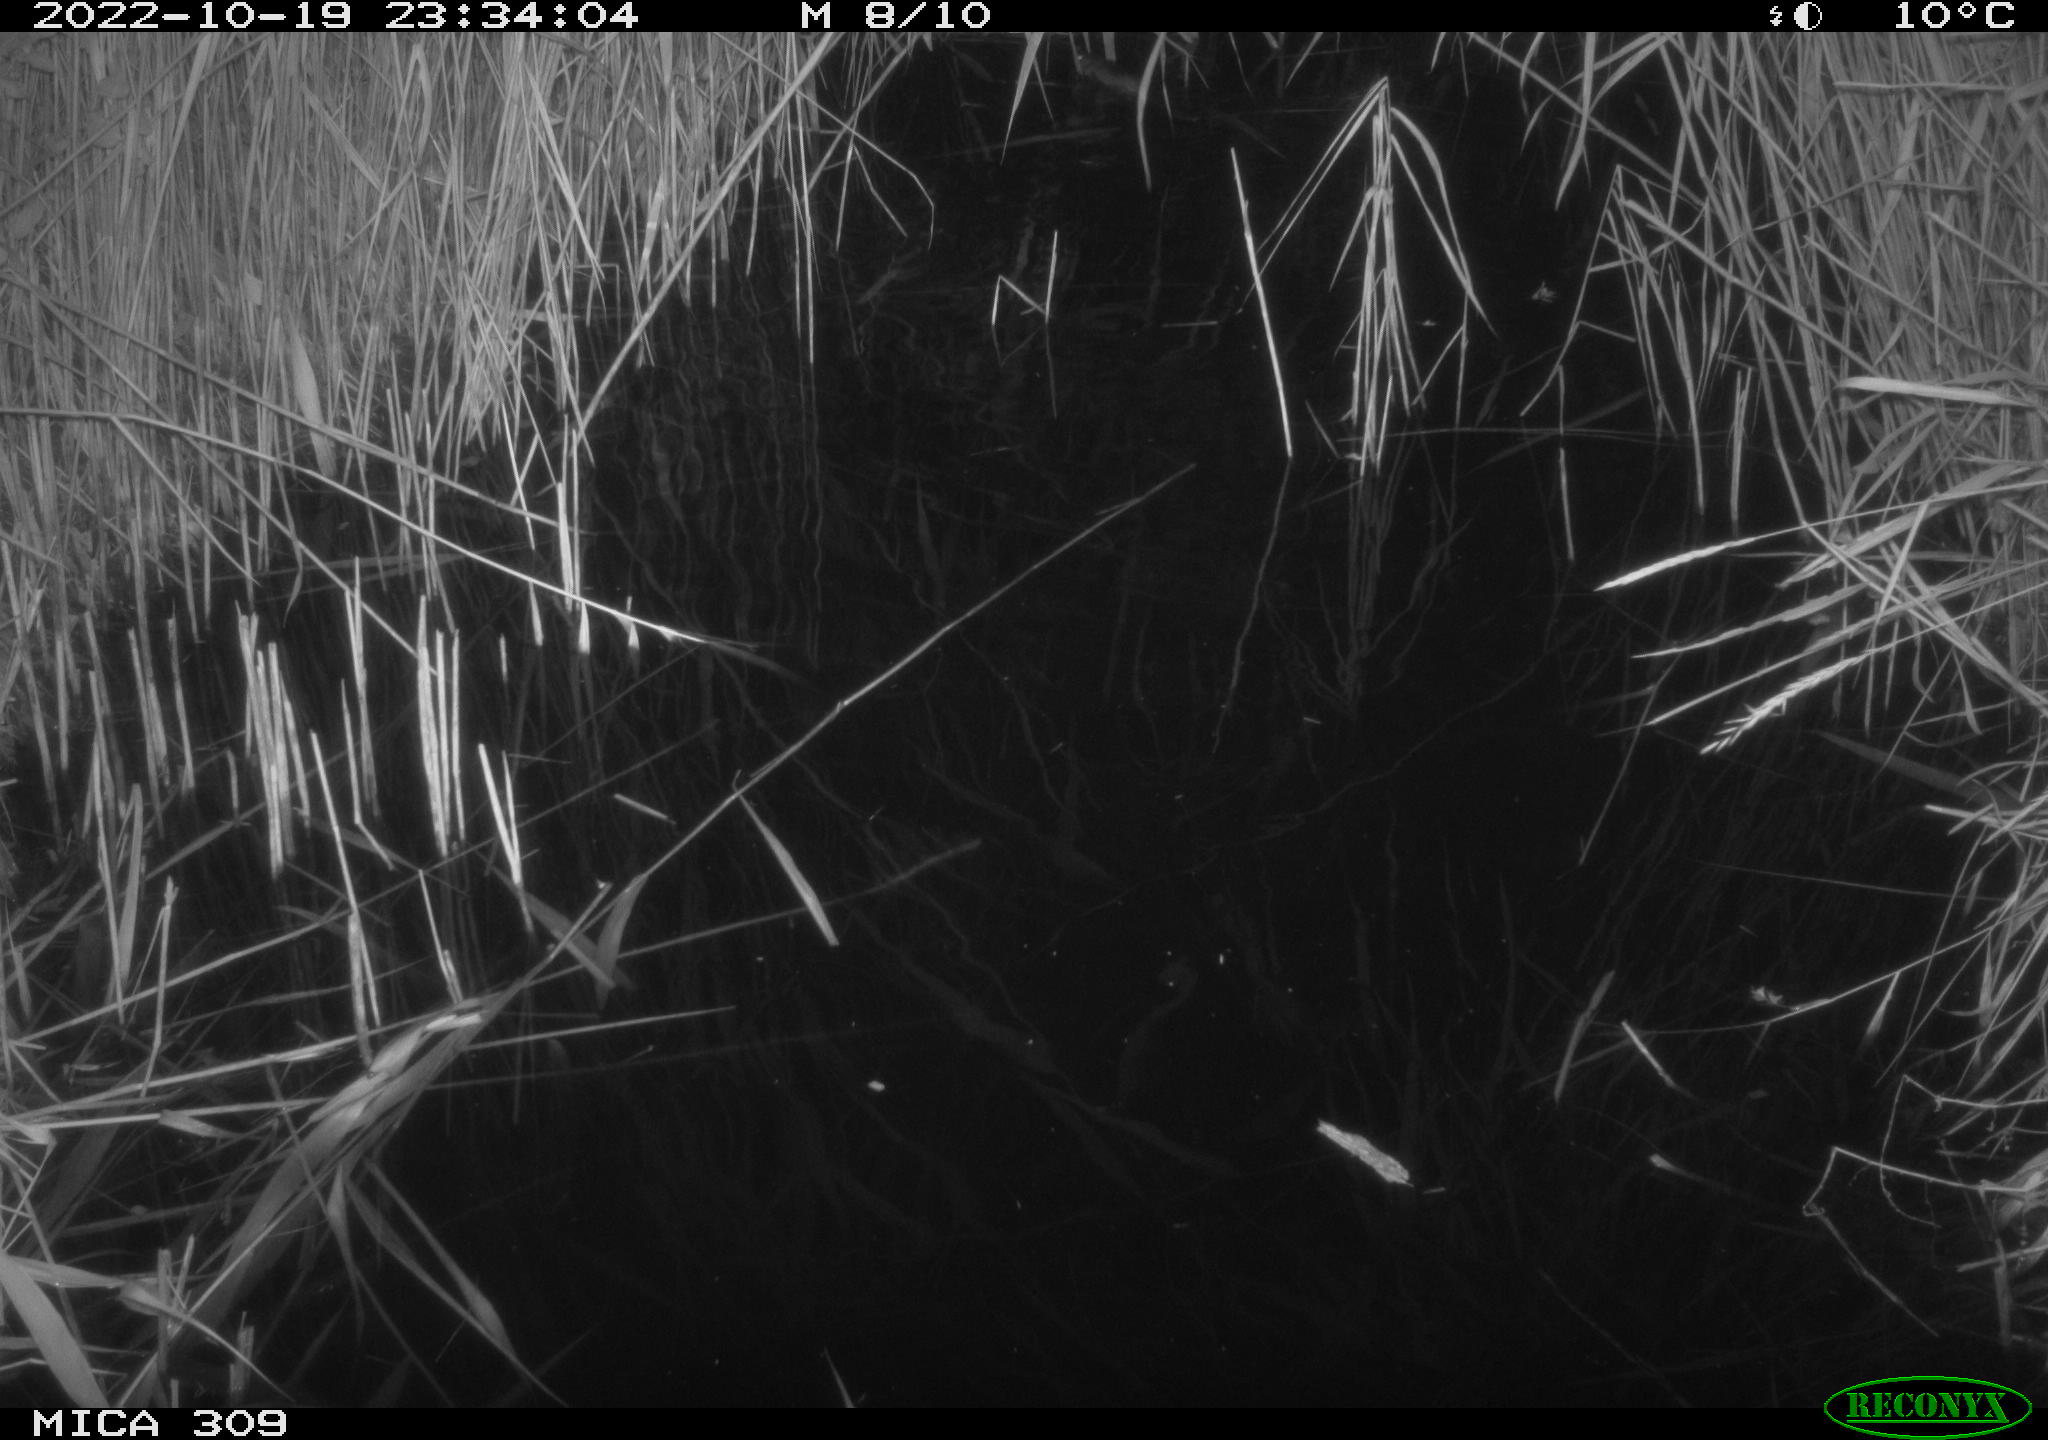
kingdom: Animalia
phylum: Chordata
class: Mammalia
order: Rodentia
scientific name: Rodentia
